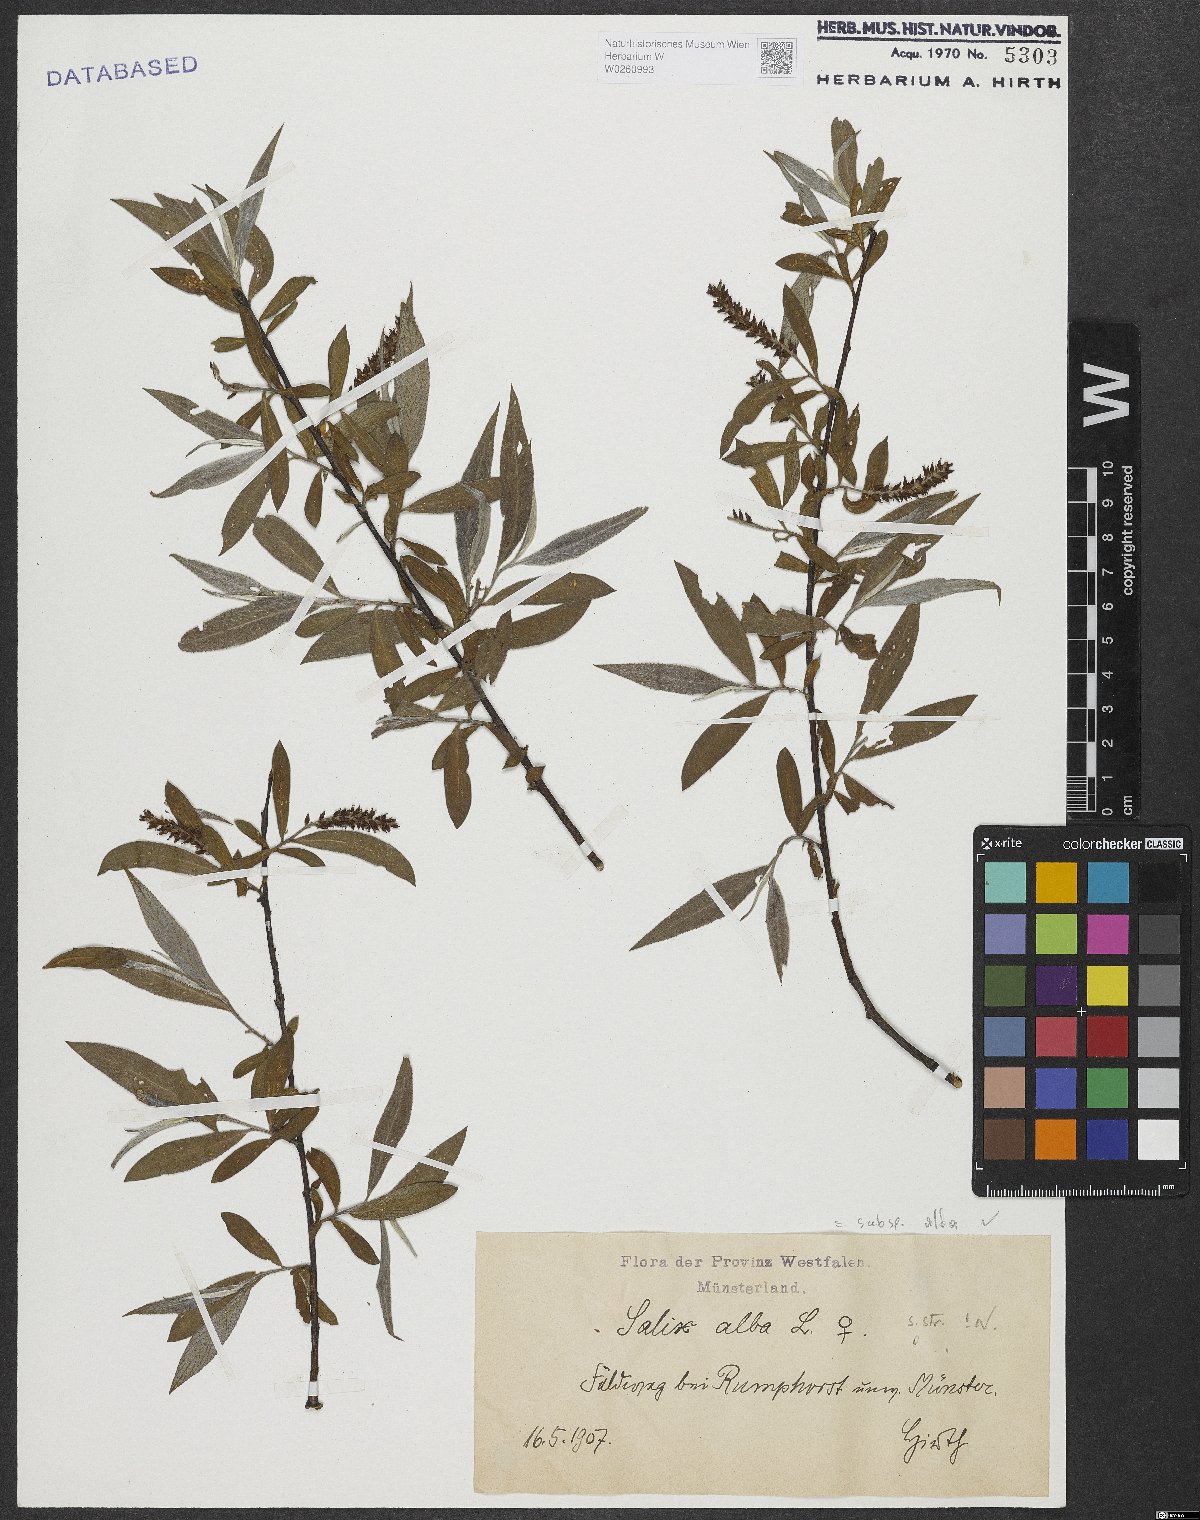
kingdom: Plantae
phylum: Tracheophyta
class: Magnoliopsida
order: Malpighiales
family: Salicaceae
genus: Salix
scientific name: Salix alba
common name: White willow
